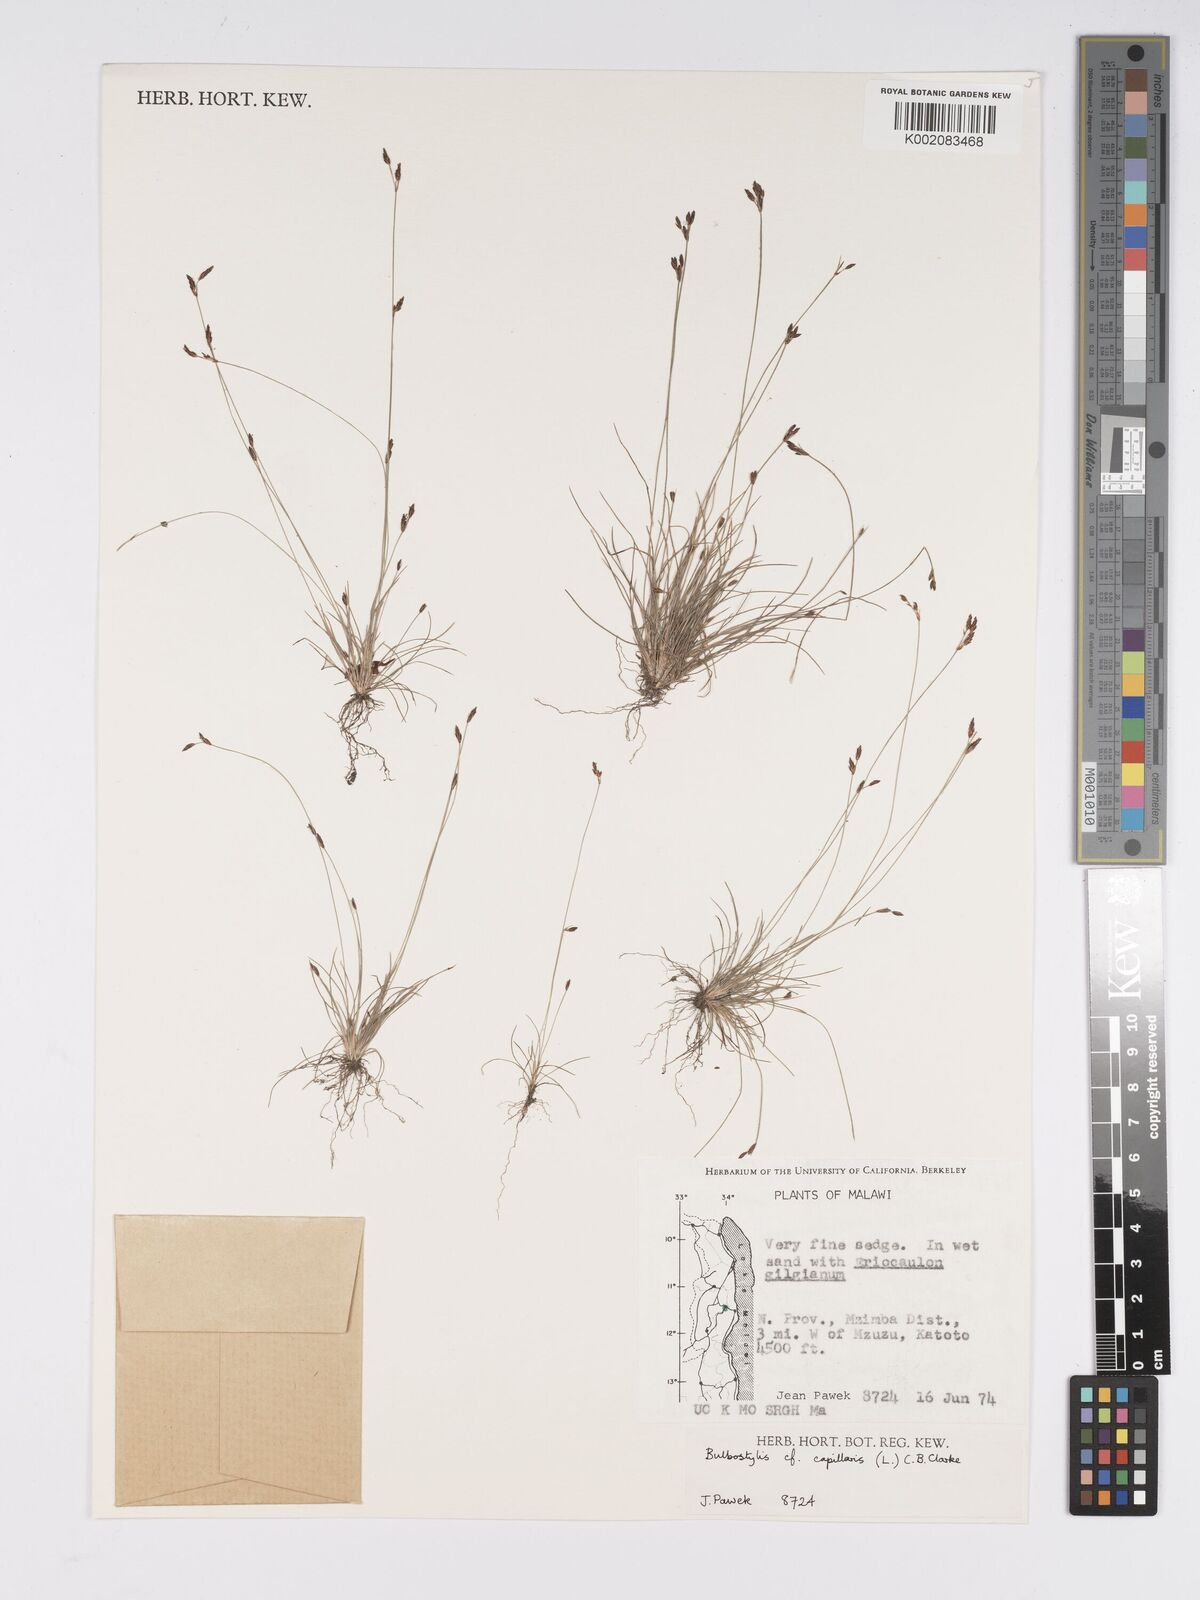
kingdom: Plantae
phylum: Tracheophyta
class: Liliopsida
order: Poales
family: Cyperaceae
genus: Bulbostylis
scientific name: Bulbostylis capillaris
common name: Densetuft hairsedge
